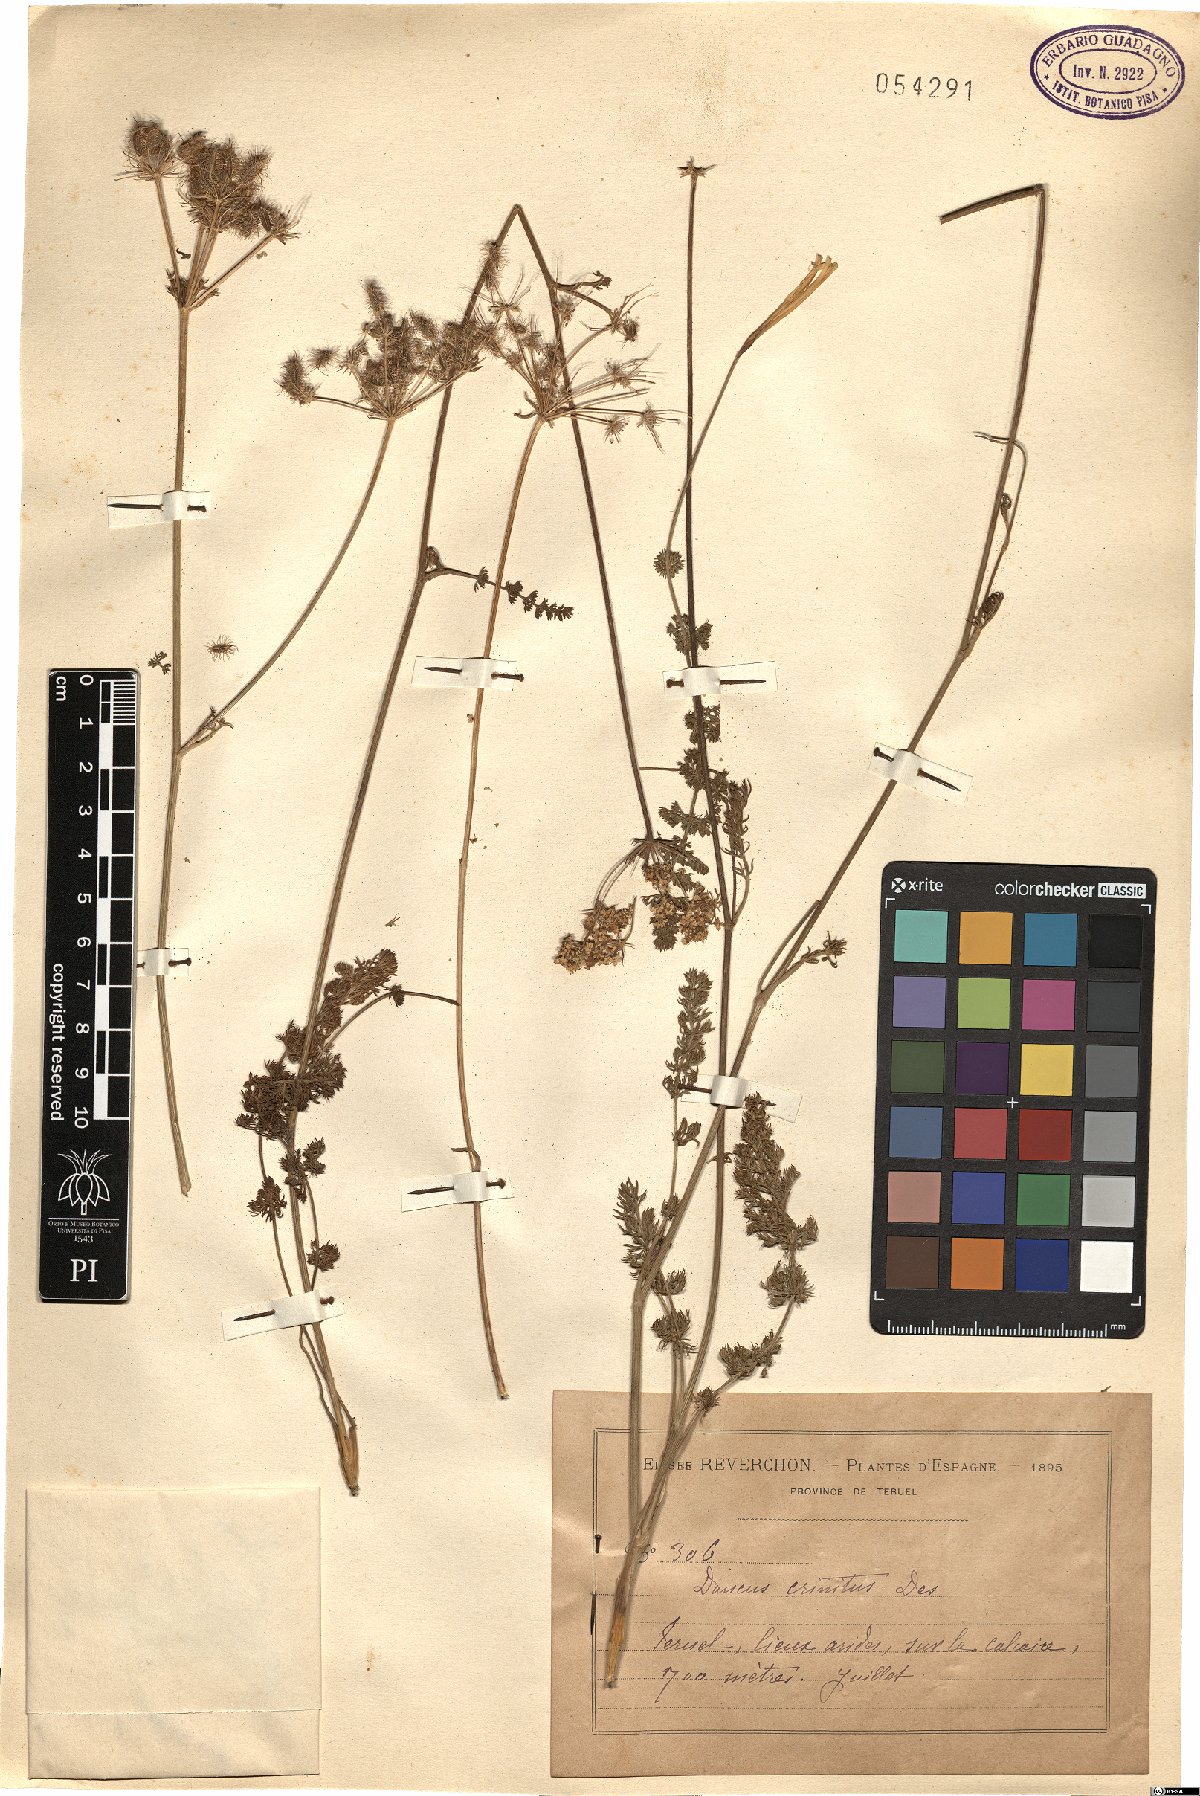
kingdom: Plantae
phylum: Tracheophyta
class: Magnoliopsida
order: Apiales
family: Apiaceae
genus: Daucus
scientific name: Daucus crinitus
